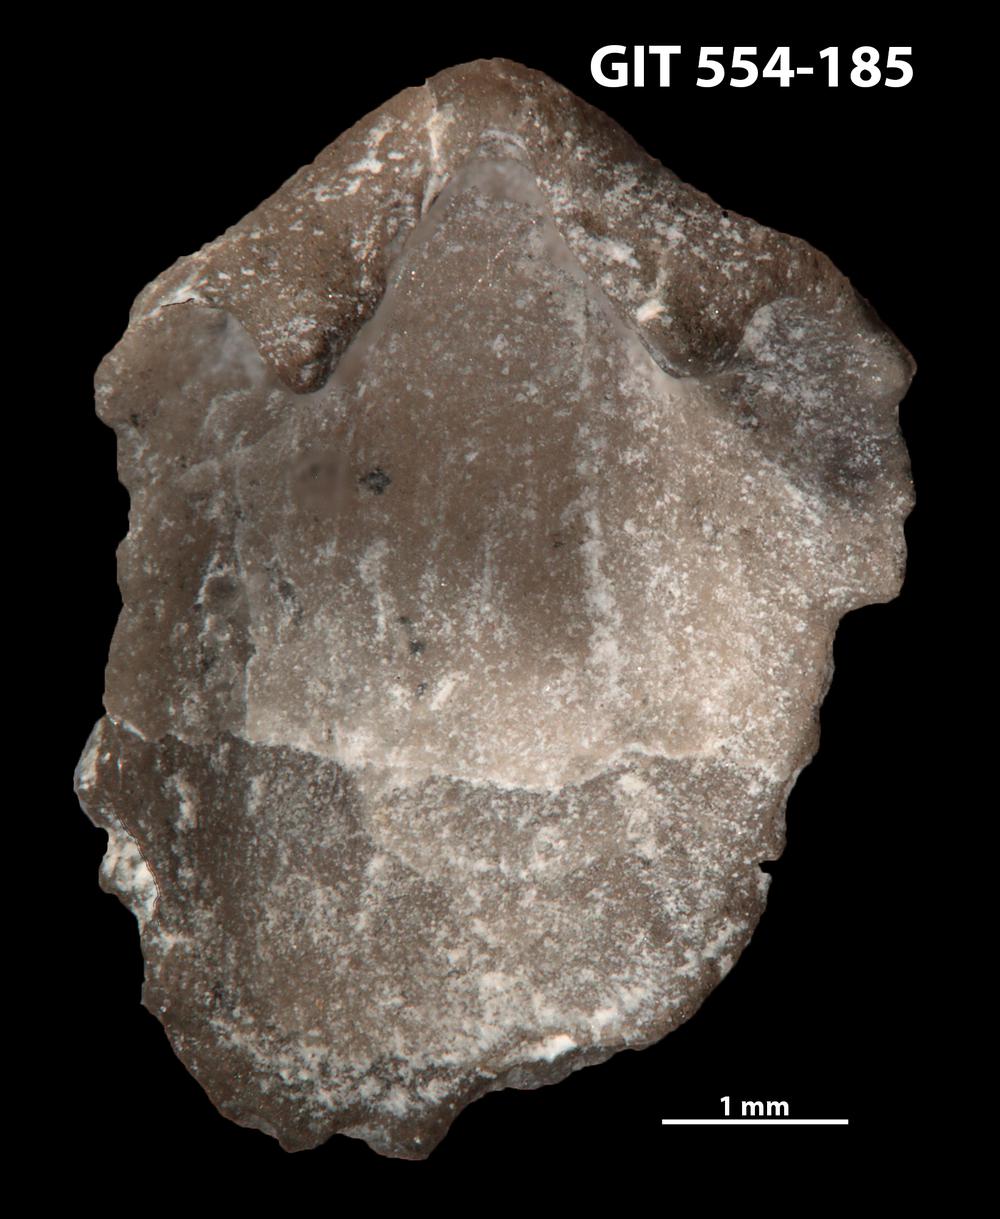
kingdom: Animalia
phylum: Brachiopoda
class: Rhynchonellata
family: Dalmanellidae
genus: Resserella
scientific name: Resserella Orthis elegantula
